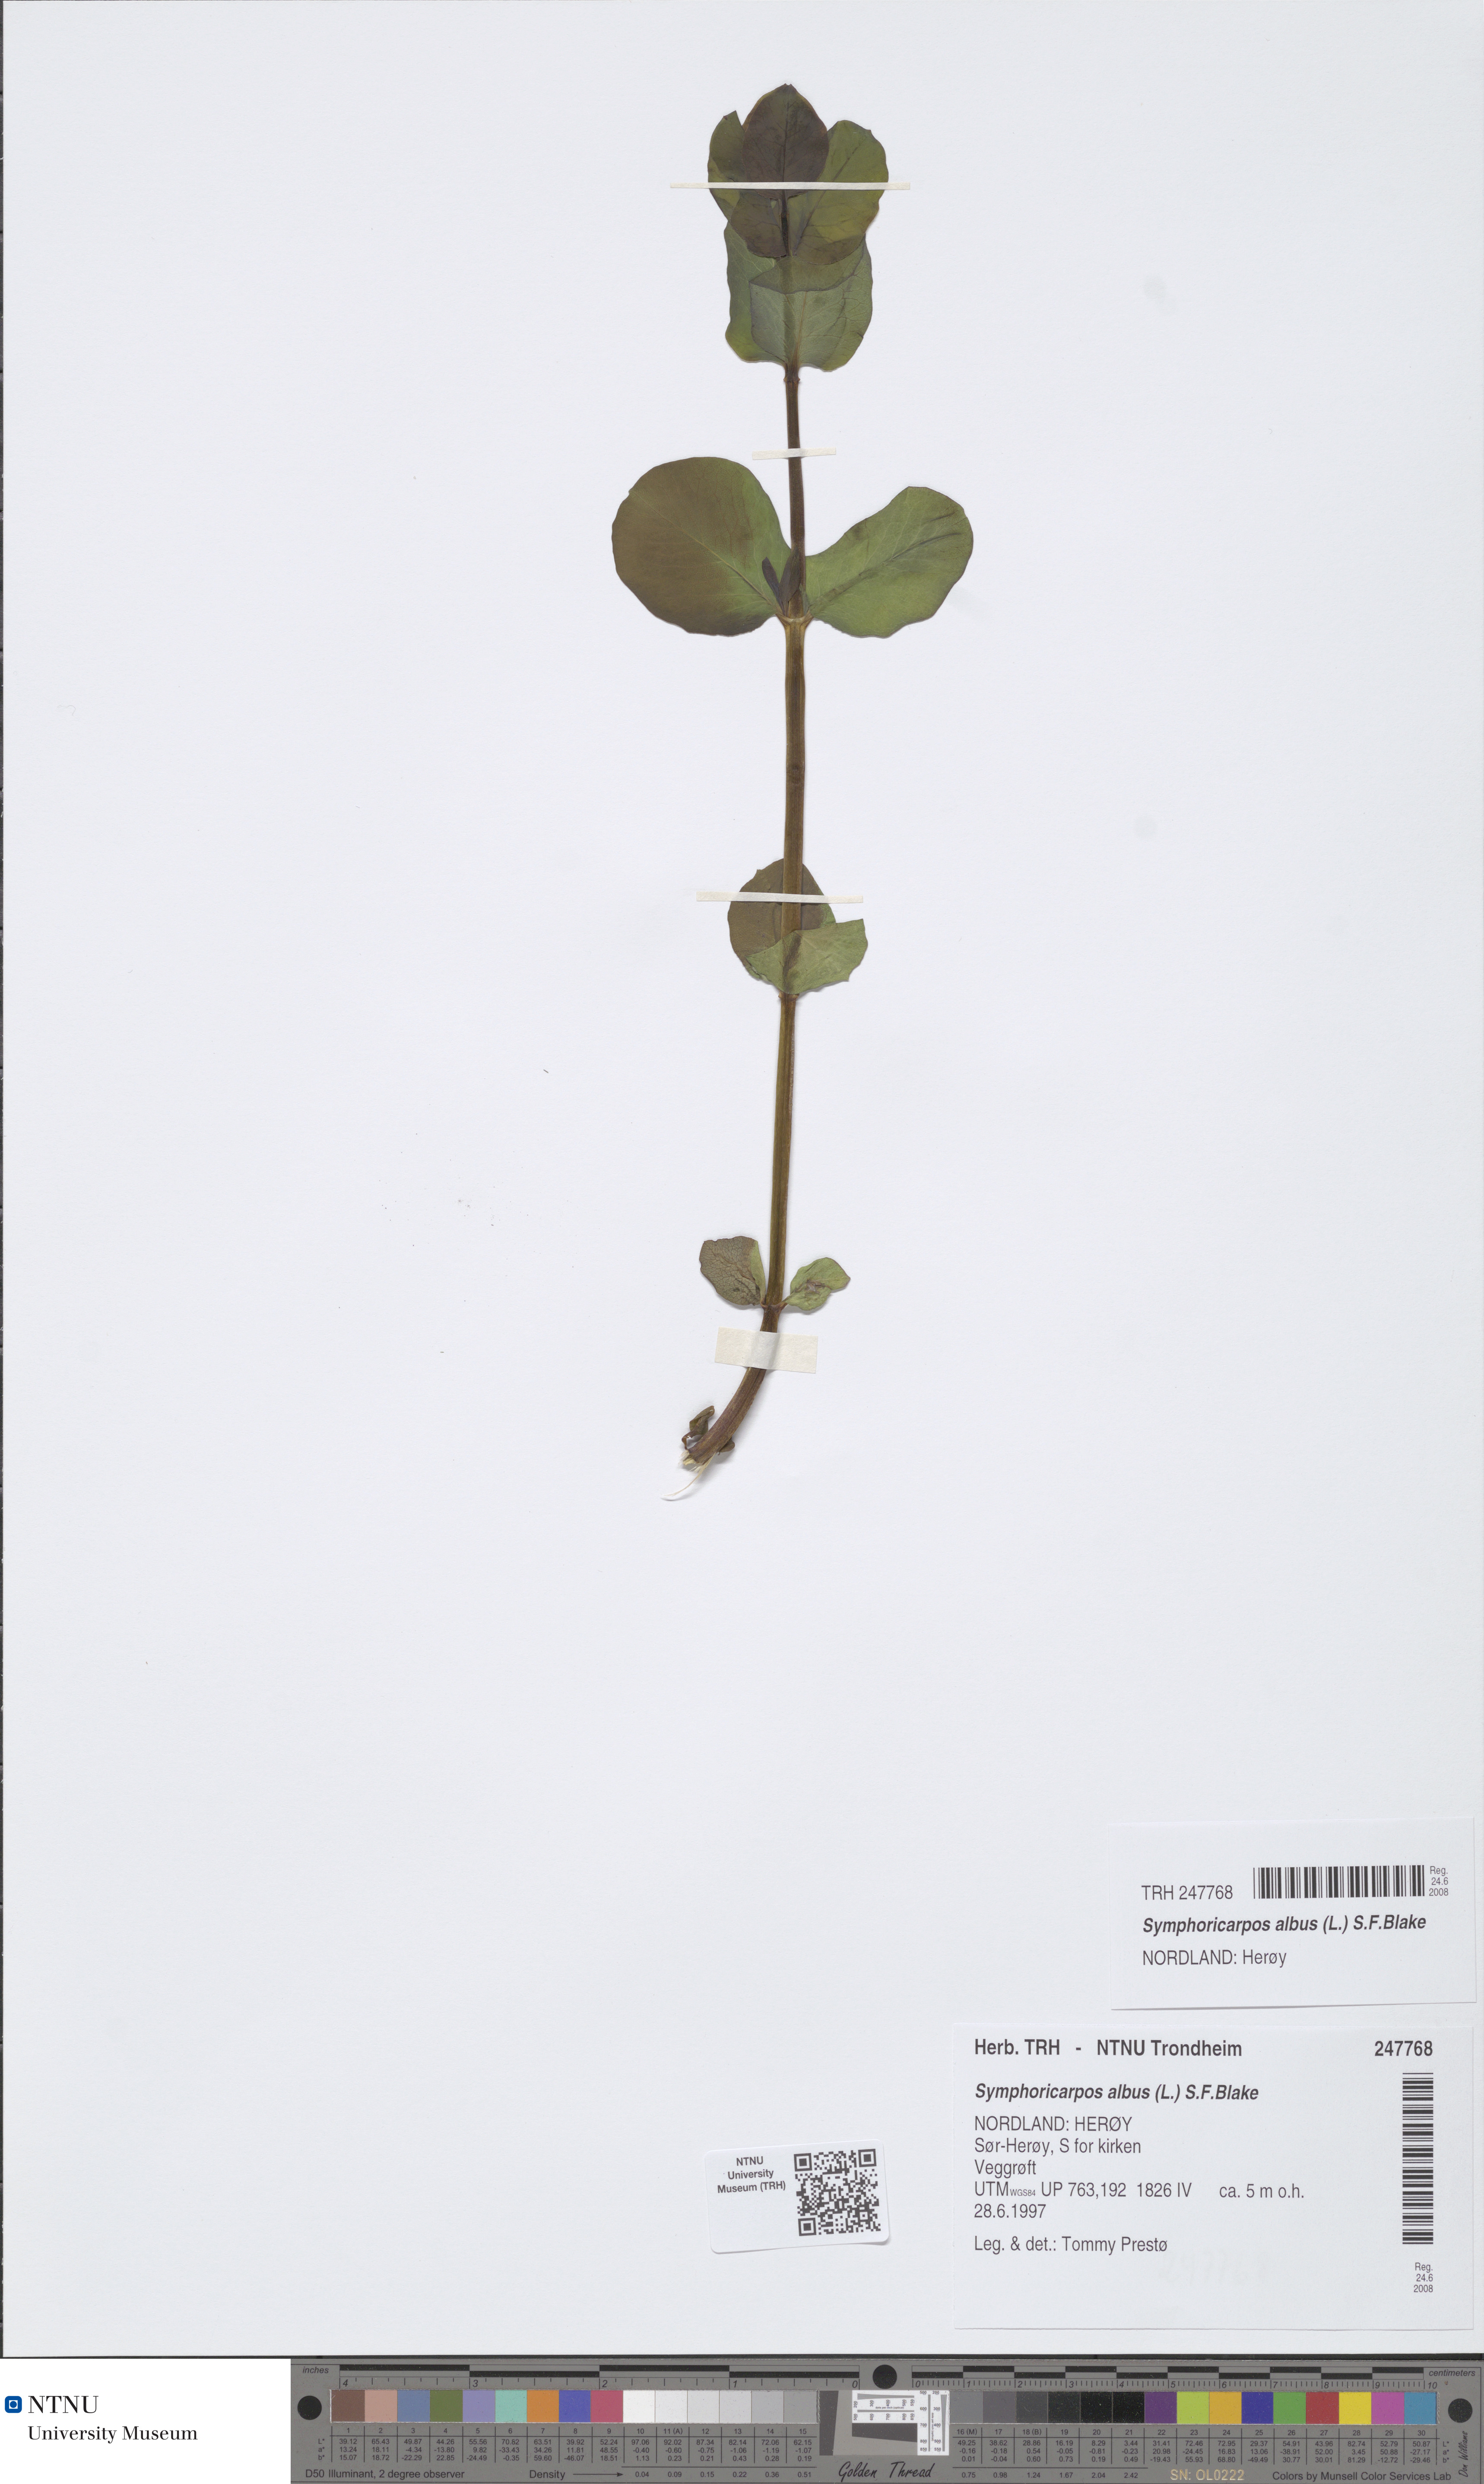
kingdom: Plantae
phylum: Tracheophyta
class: Magnoliopsida
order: Dipsacales
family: Caprifoliaceae
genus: Symphoricarpos
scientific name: Symphoricarpos albus
